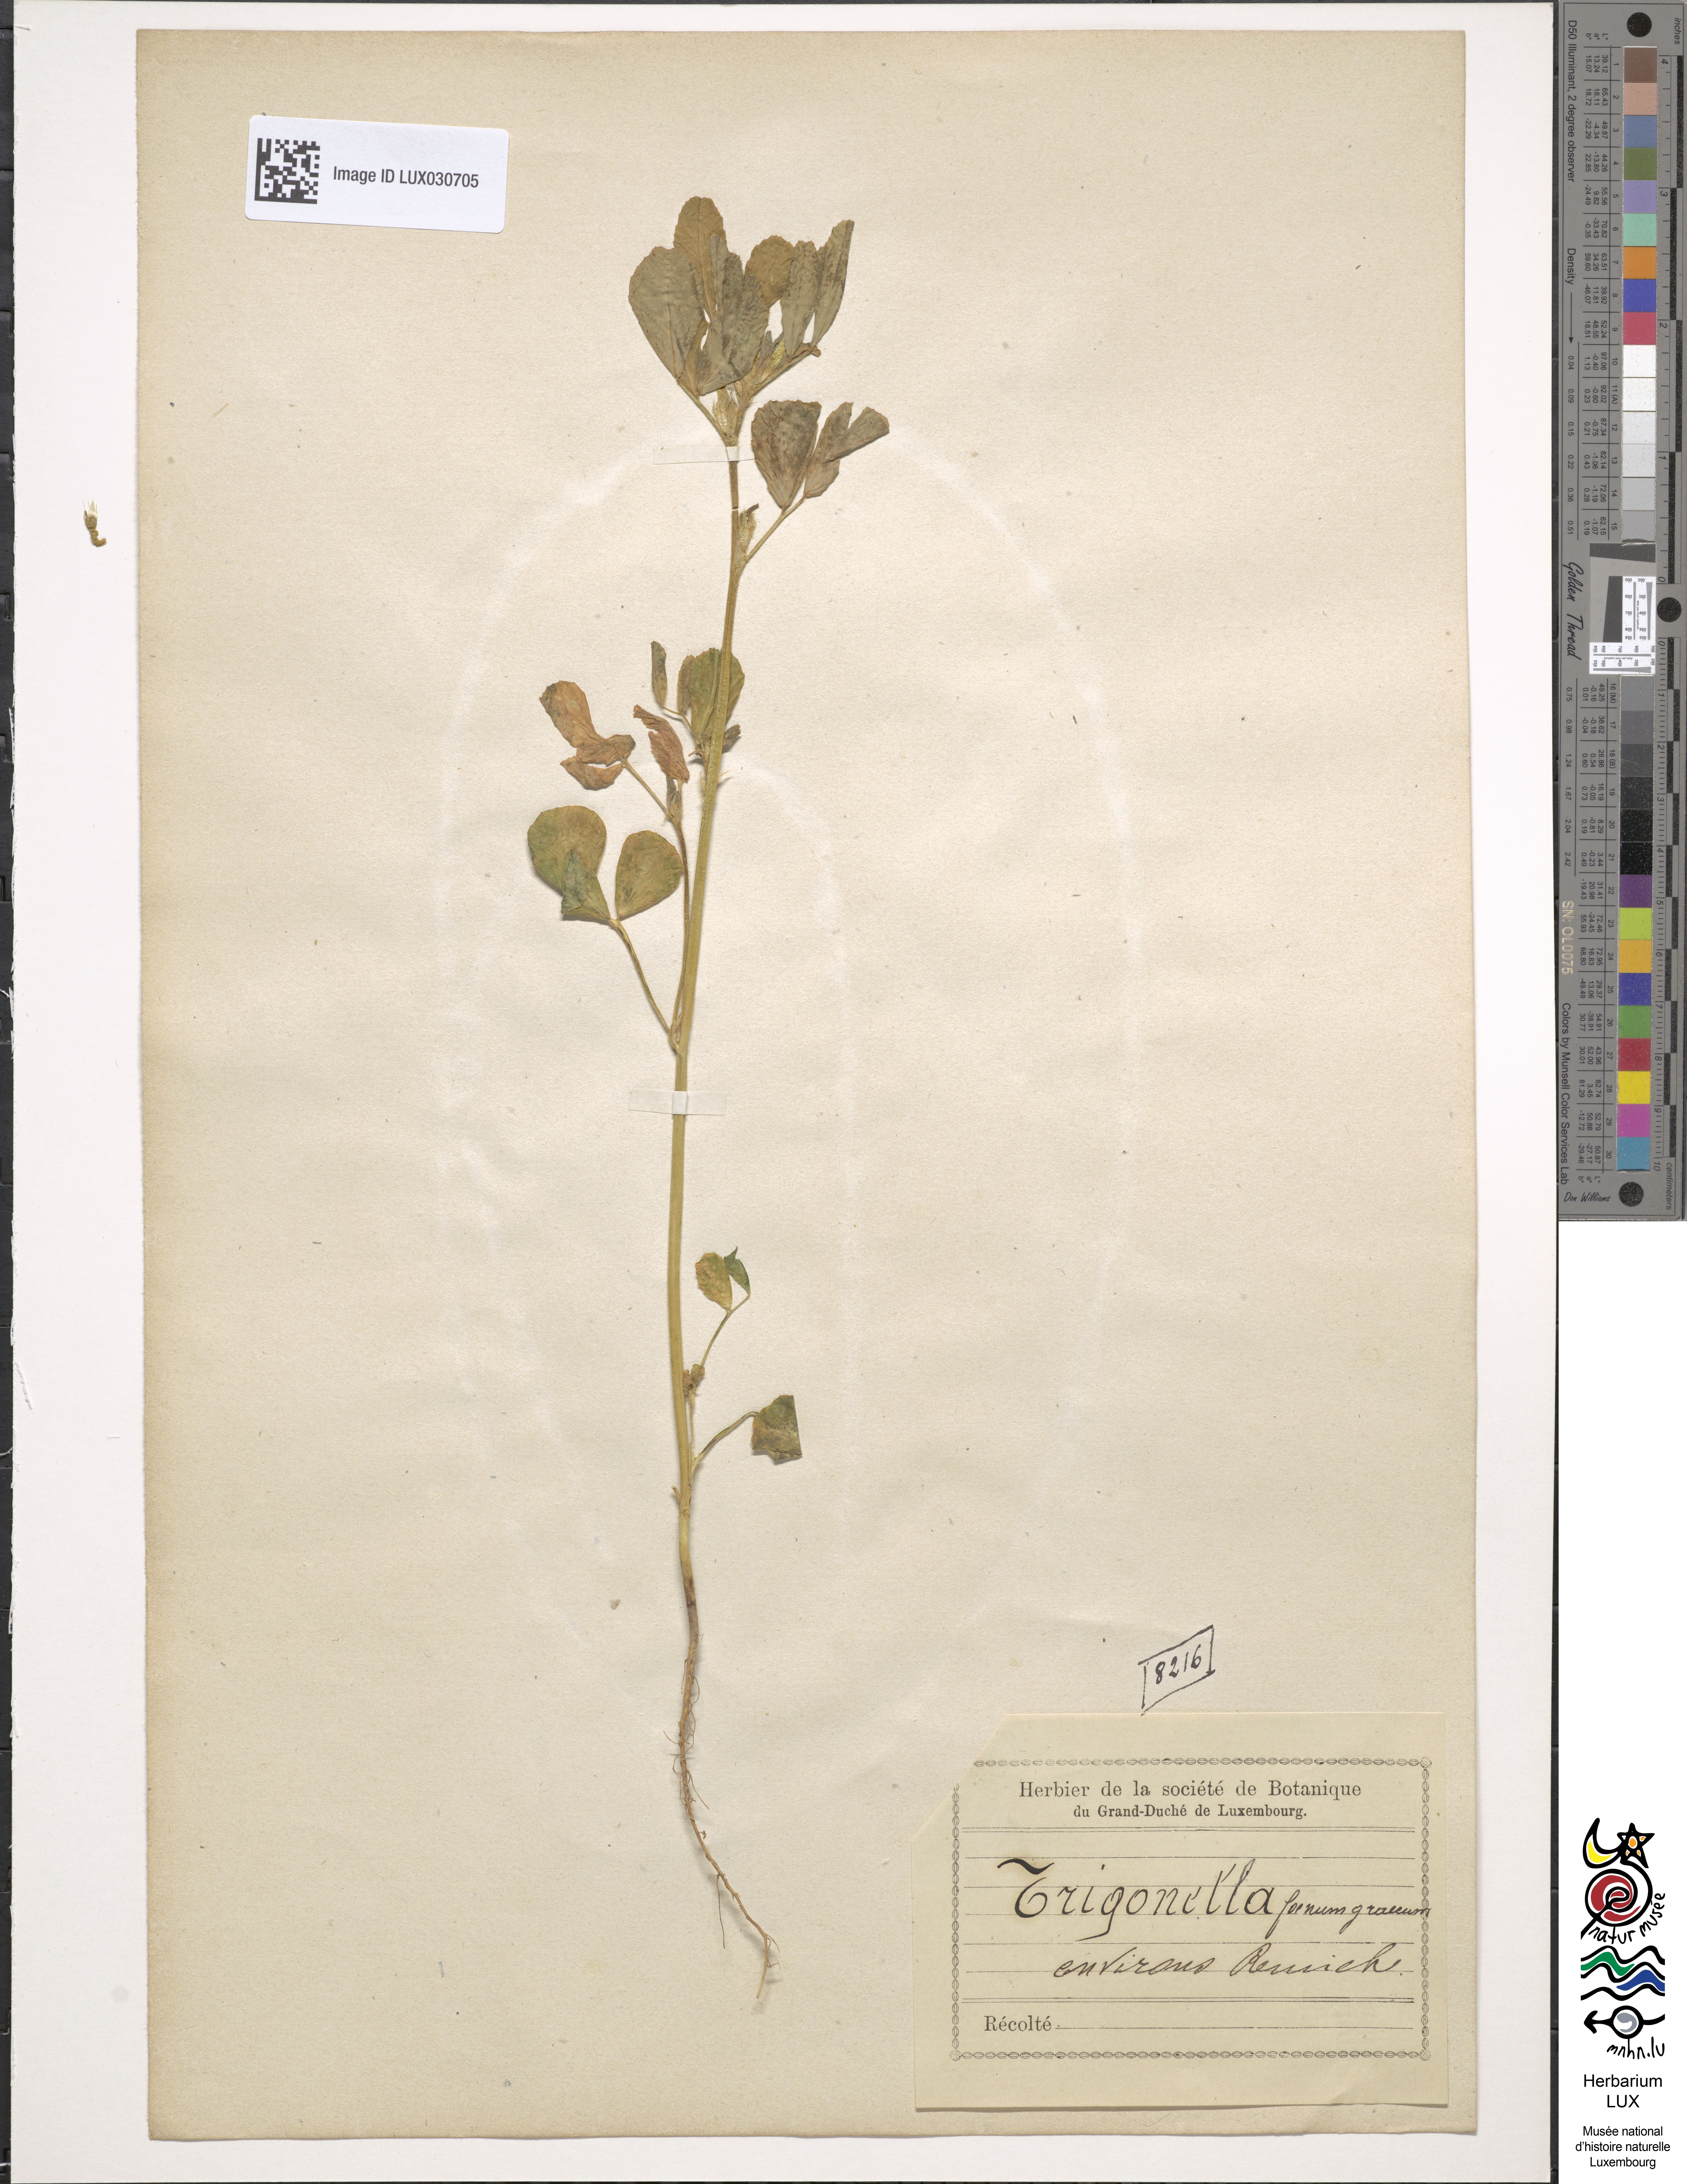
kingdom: Plantae
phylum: Tracheophyta
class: Magnoliopsida
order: Fabales
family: Fabaceae
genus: Trigonella
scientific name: Trigonella
